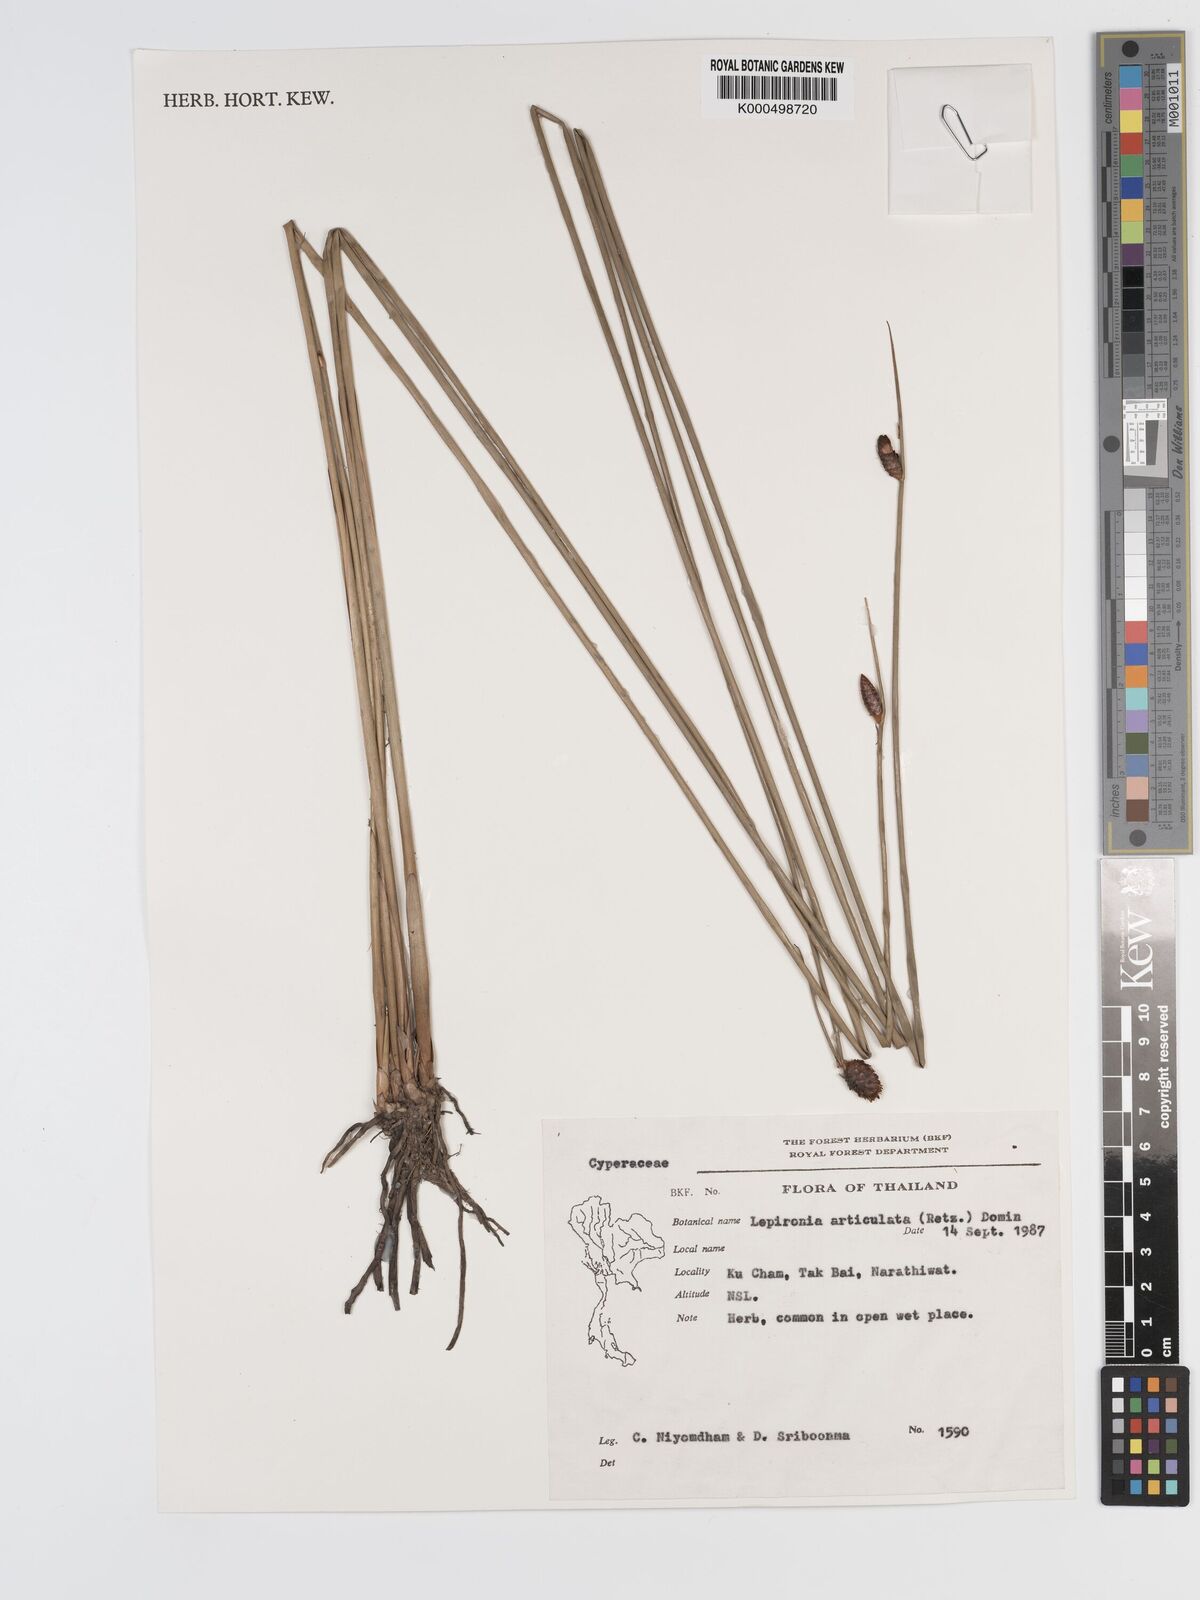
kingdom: Plantae
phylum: Tracheophyta
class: Liliopsida
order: Poales
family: Cyperaceae
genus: Lepironia
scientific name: Lepironia articulata
